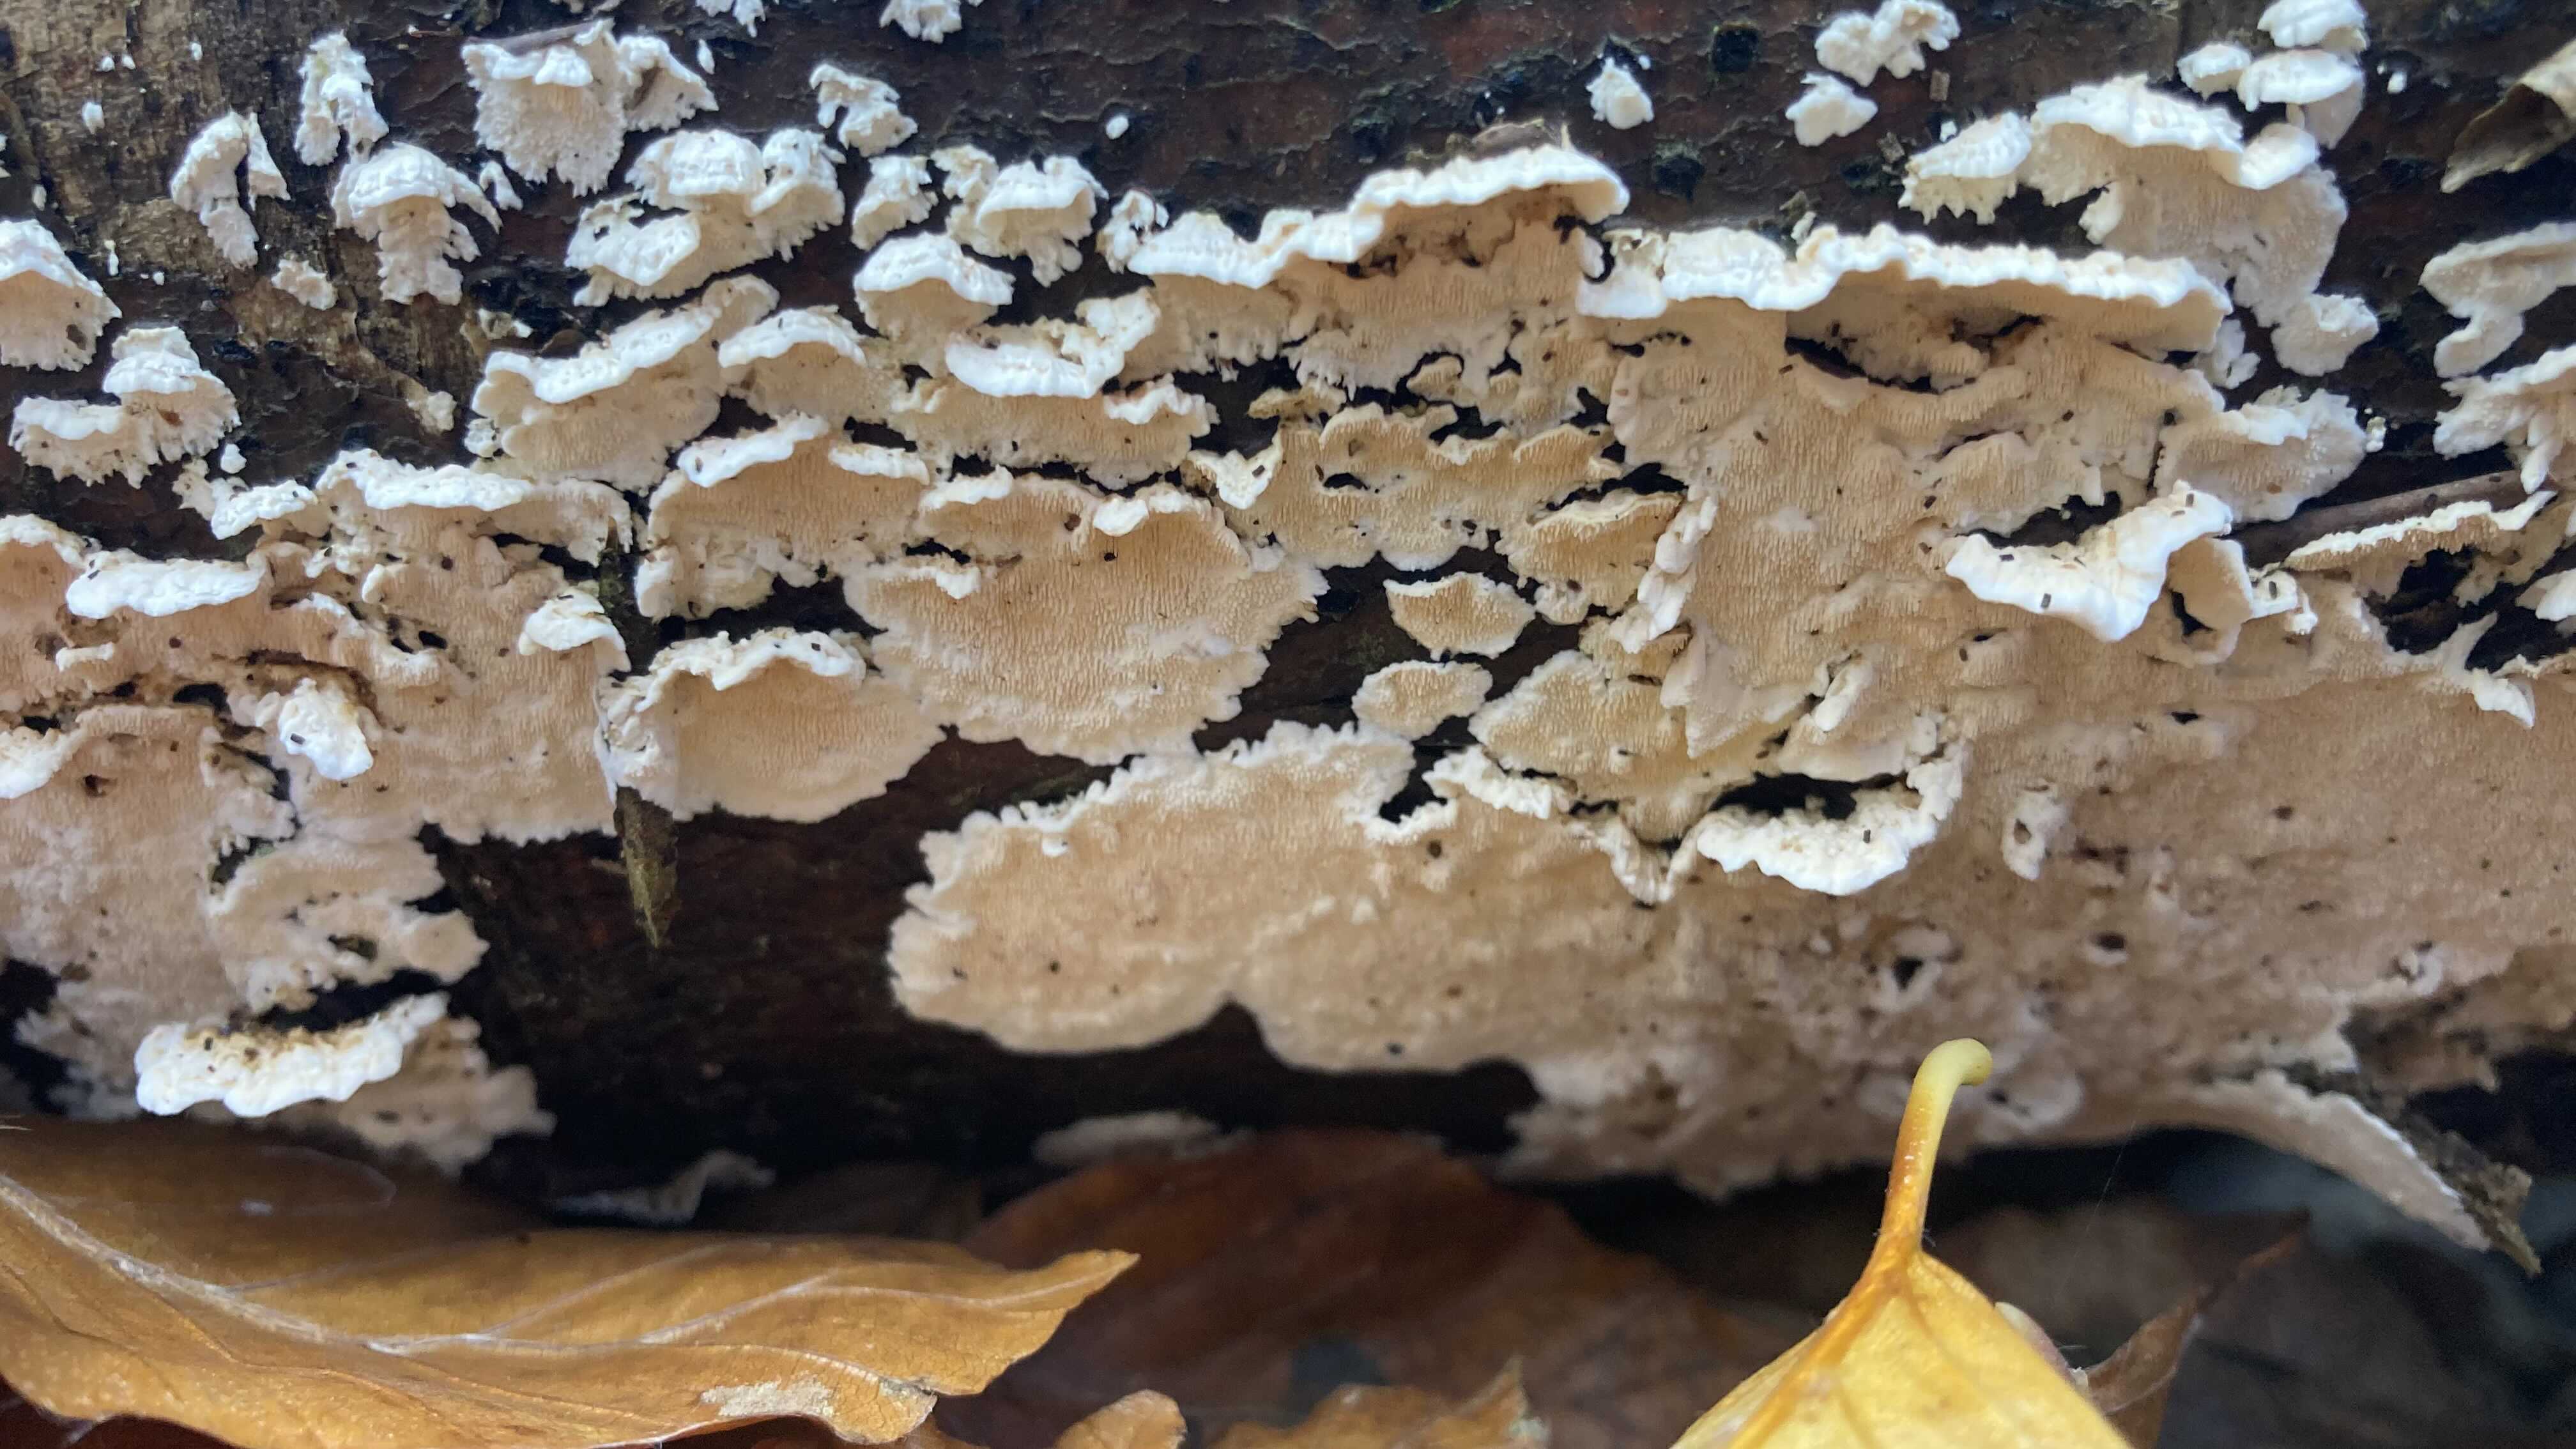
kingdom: Fungi
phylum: Basidiomycota
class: Agaricomycetes
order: Polyporales
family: Steccherinaceae
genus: Steccherinum
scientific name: Steccherinum ochraceum
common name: almindelig skønpig
